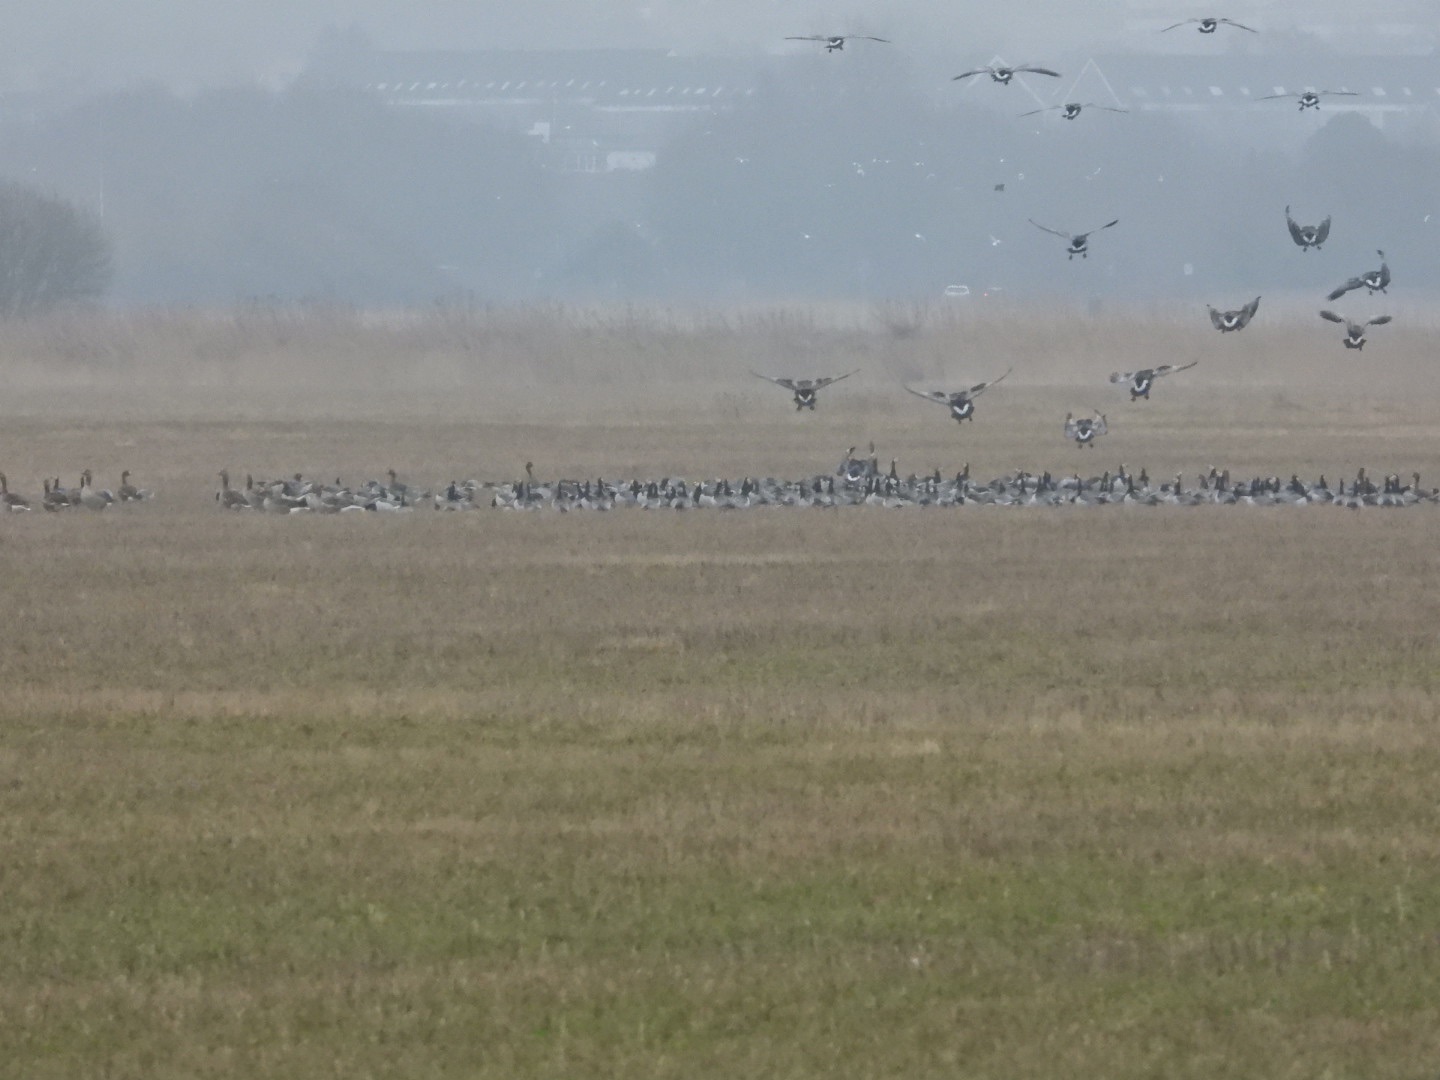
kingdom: Animalia
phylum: Chordata
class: Aves
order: Anseriformes
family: Anatidae
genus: Branta
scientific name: Branta leucopsis
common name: Bramgås
